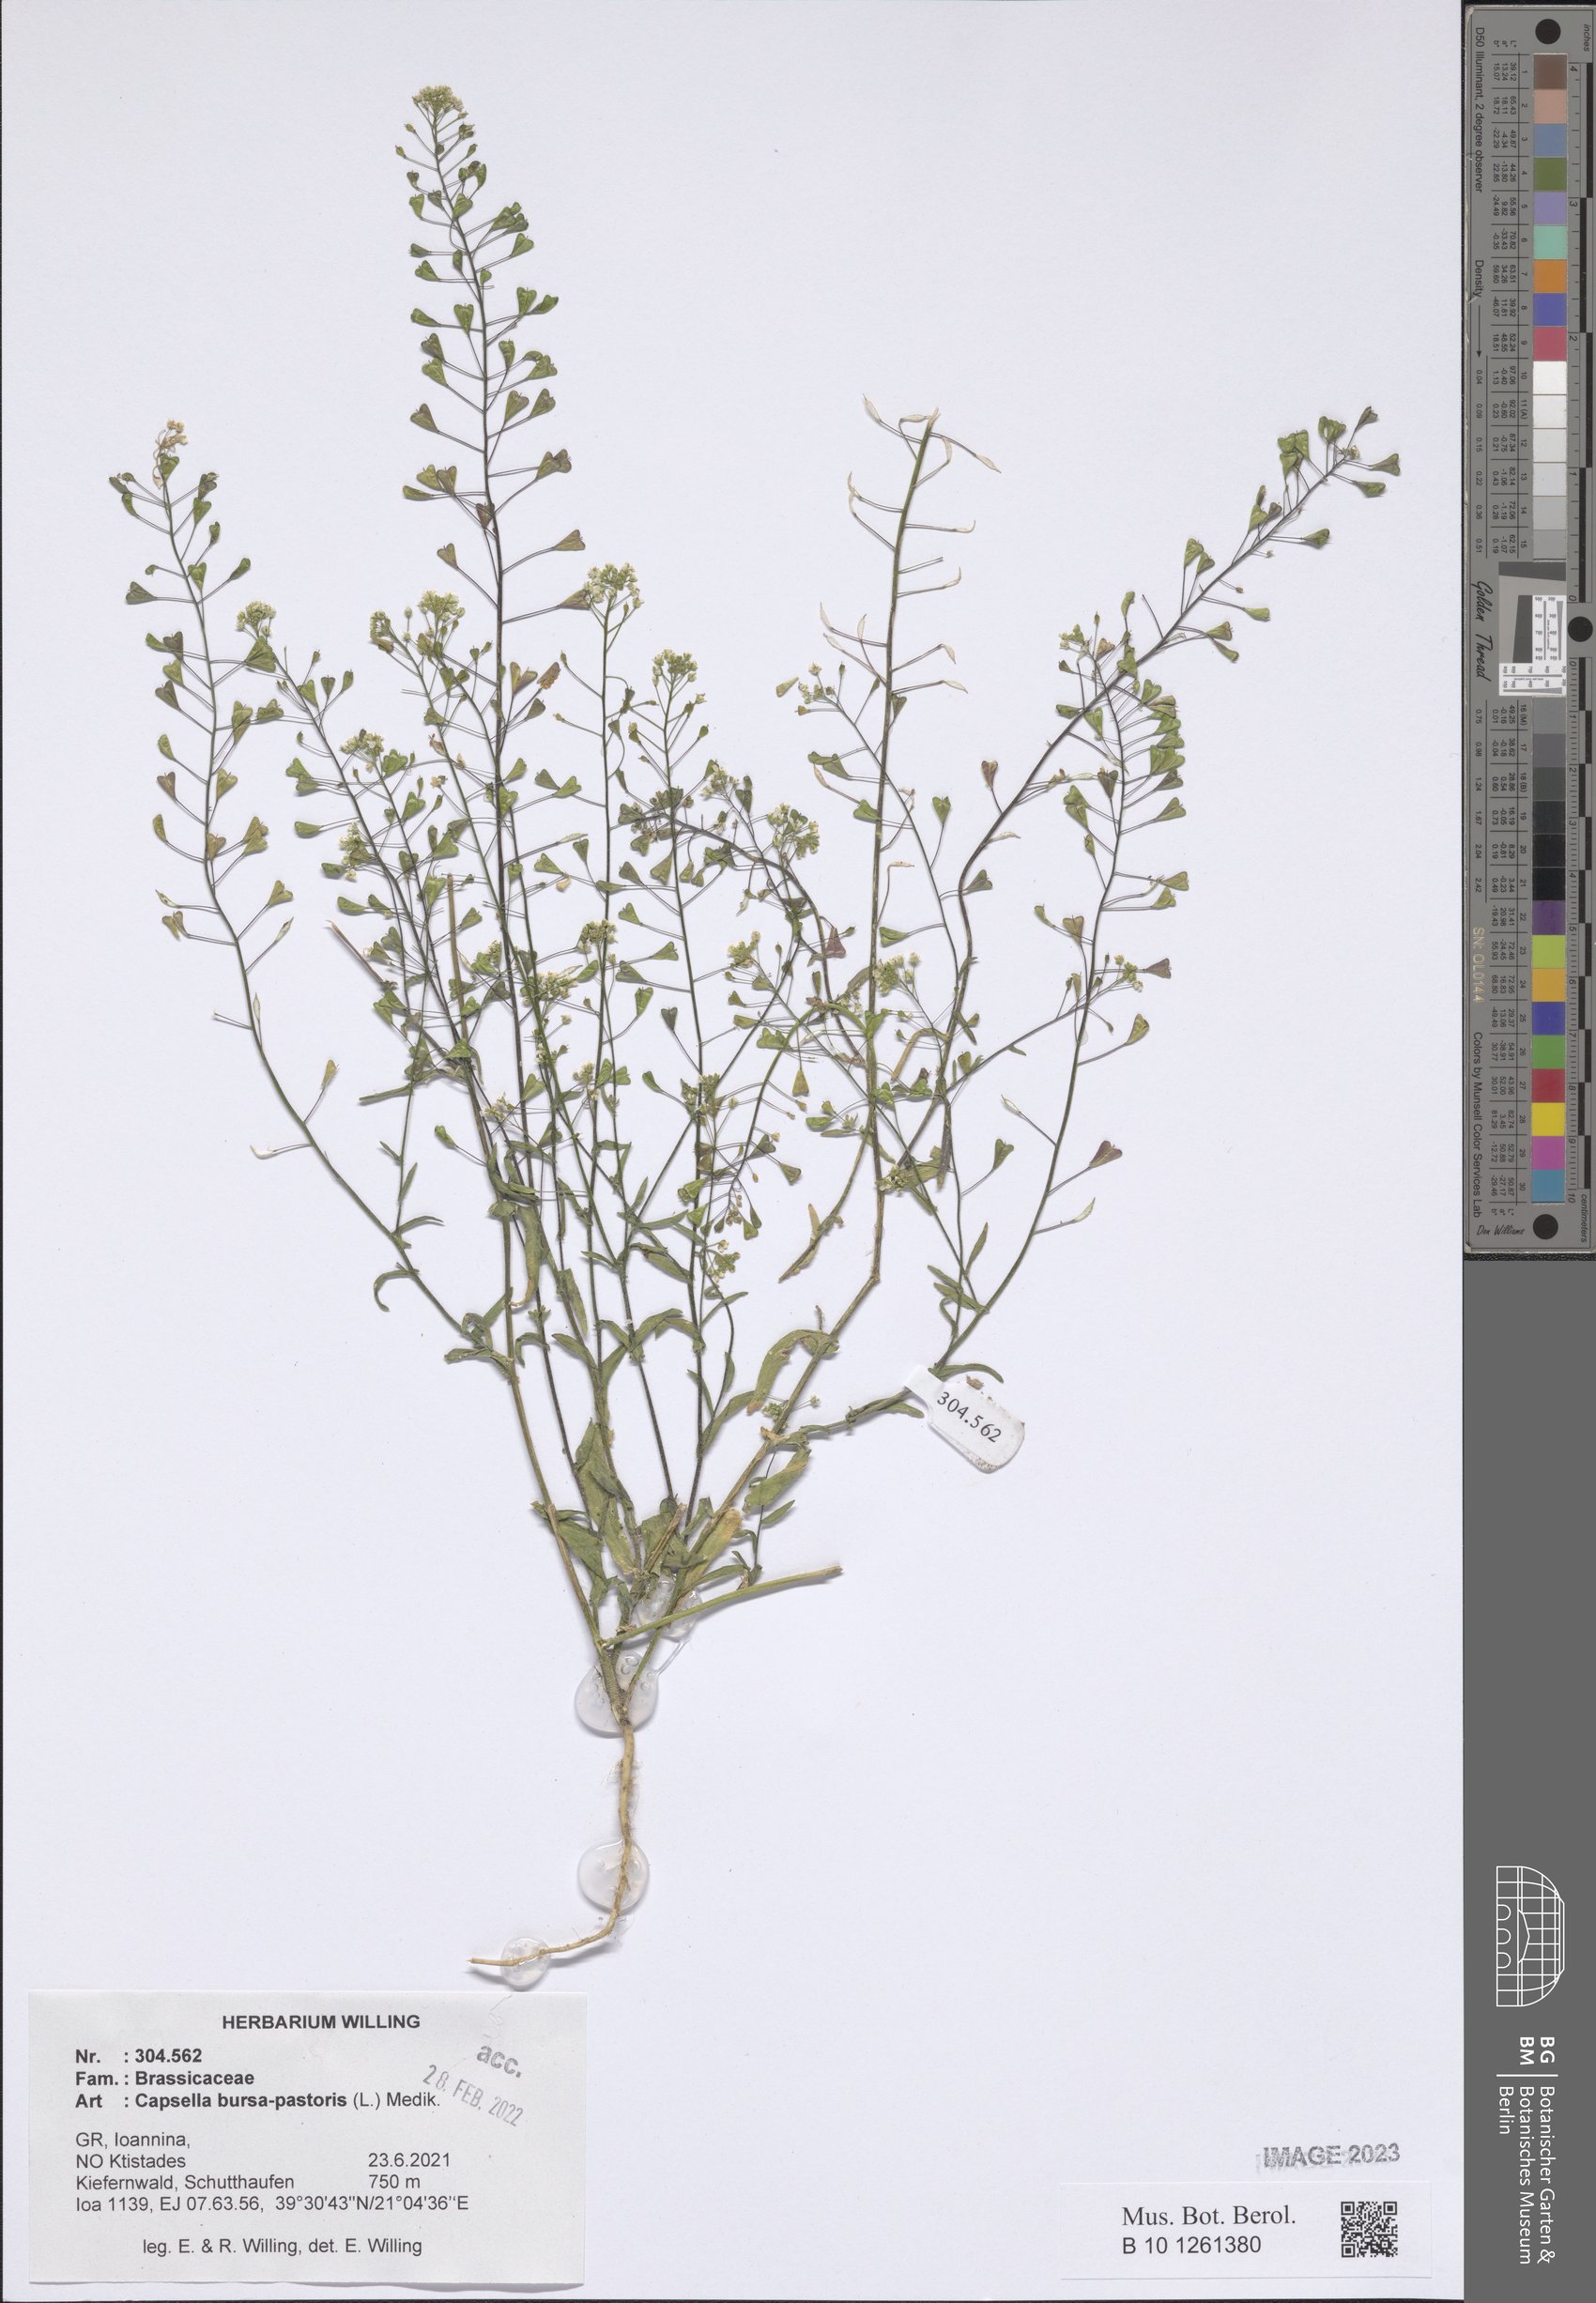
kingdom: Plantae
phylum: Tracheophyta
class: Magnoliopsida
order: Brassicales
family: Brassicaceae
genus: Capsella
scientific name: Capsella bursa-pastoris
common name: Shepherd's purse
